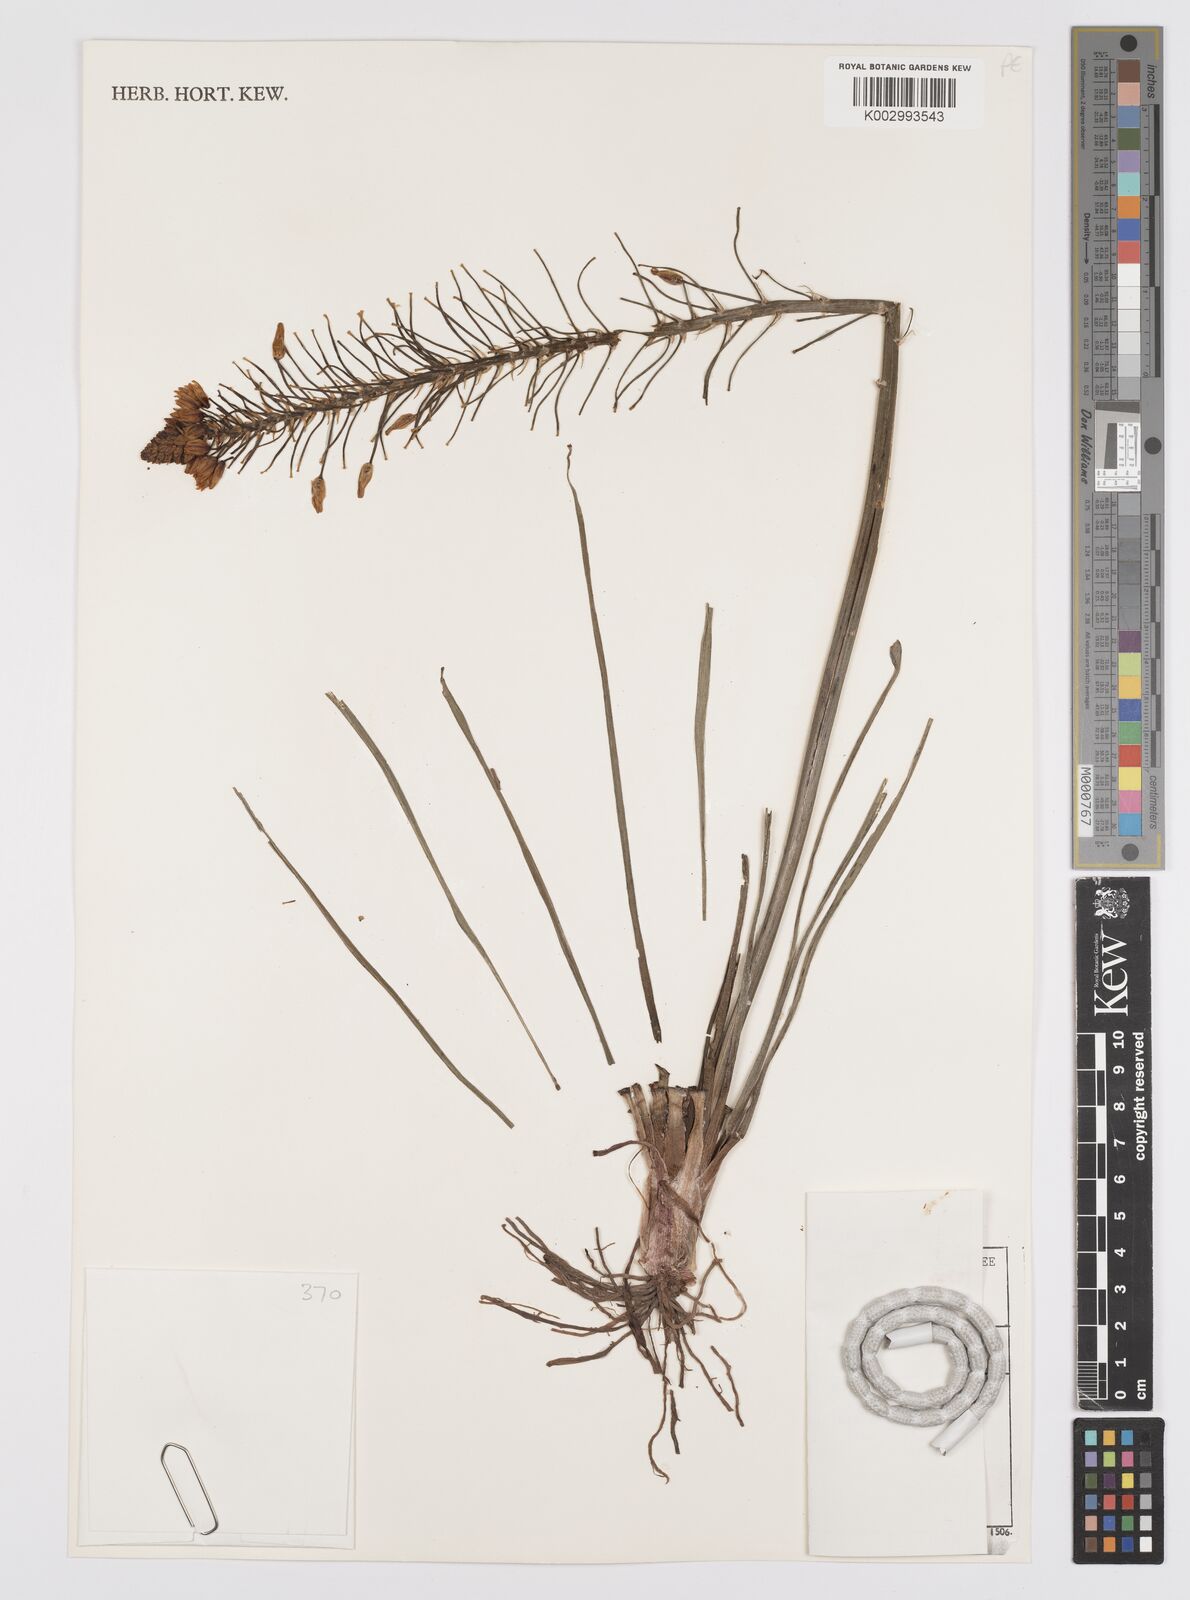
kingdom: Plantae
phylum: Tracheophyta
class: Liliopsida
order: Asparagales
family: Asphodelaceae
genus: Bulbine
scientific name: Bulbine abyssinica
